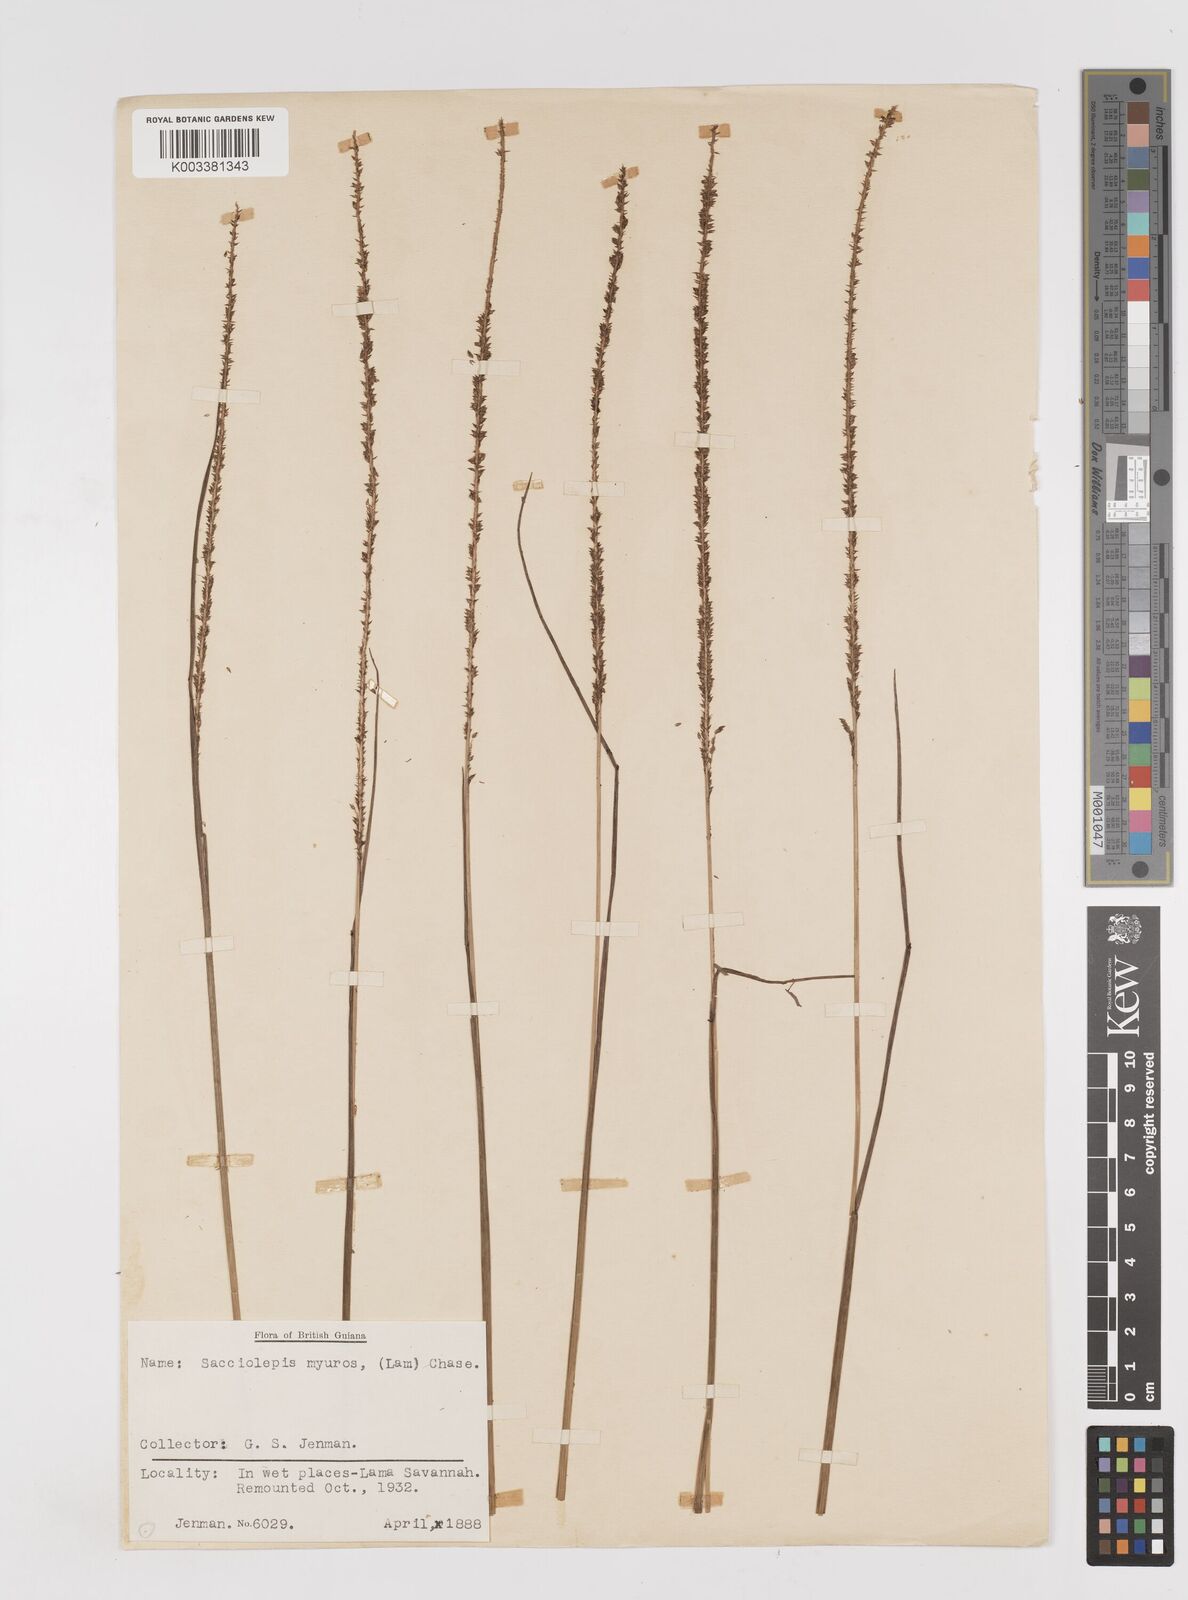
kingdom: Plantae
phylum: Tracheophyta
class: Liliopsida
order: Poales
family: Poaceae
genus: Sacciolepis
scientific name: Sacciolepis myuros
